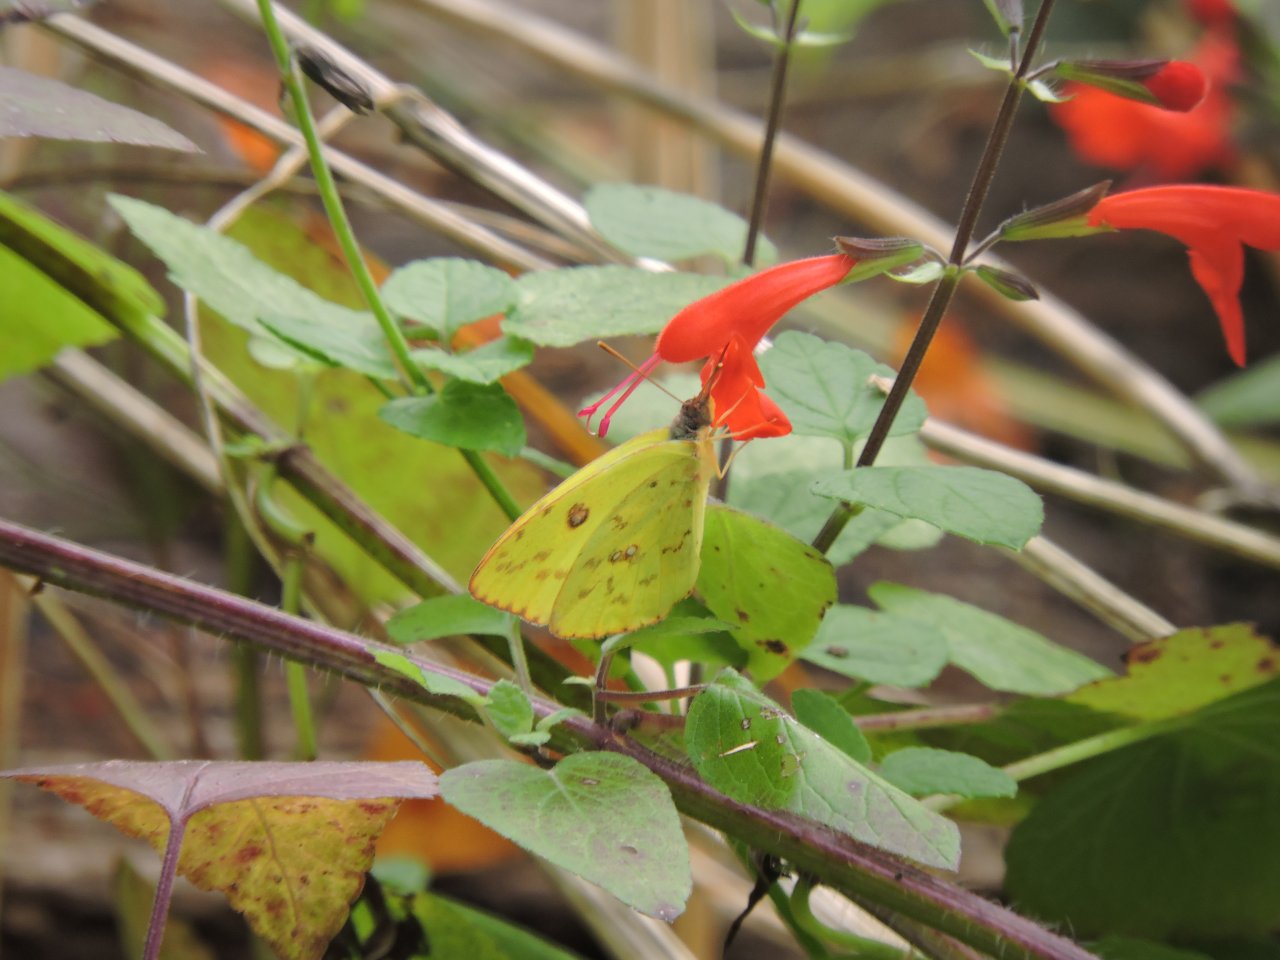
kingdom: Animalia
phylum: Arthropoda
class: Insecta
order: Lepidoptera
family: Pieridae
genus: Phoebis
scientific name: Phoebis sennae
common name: Cloudless Sulphur
